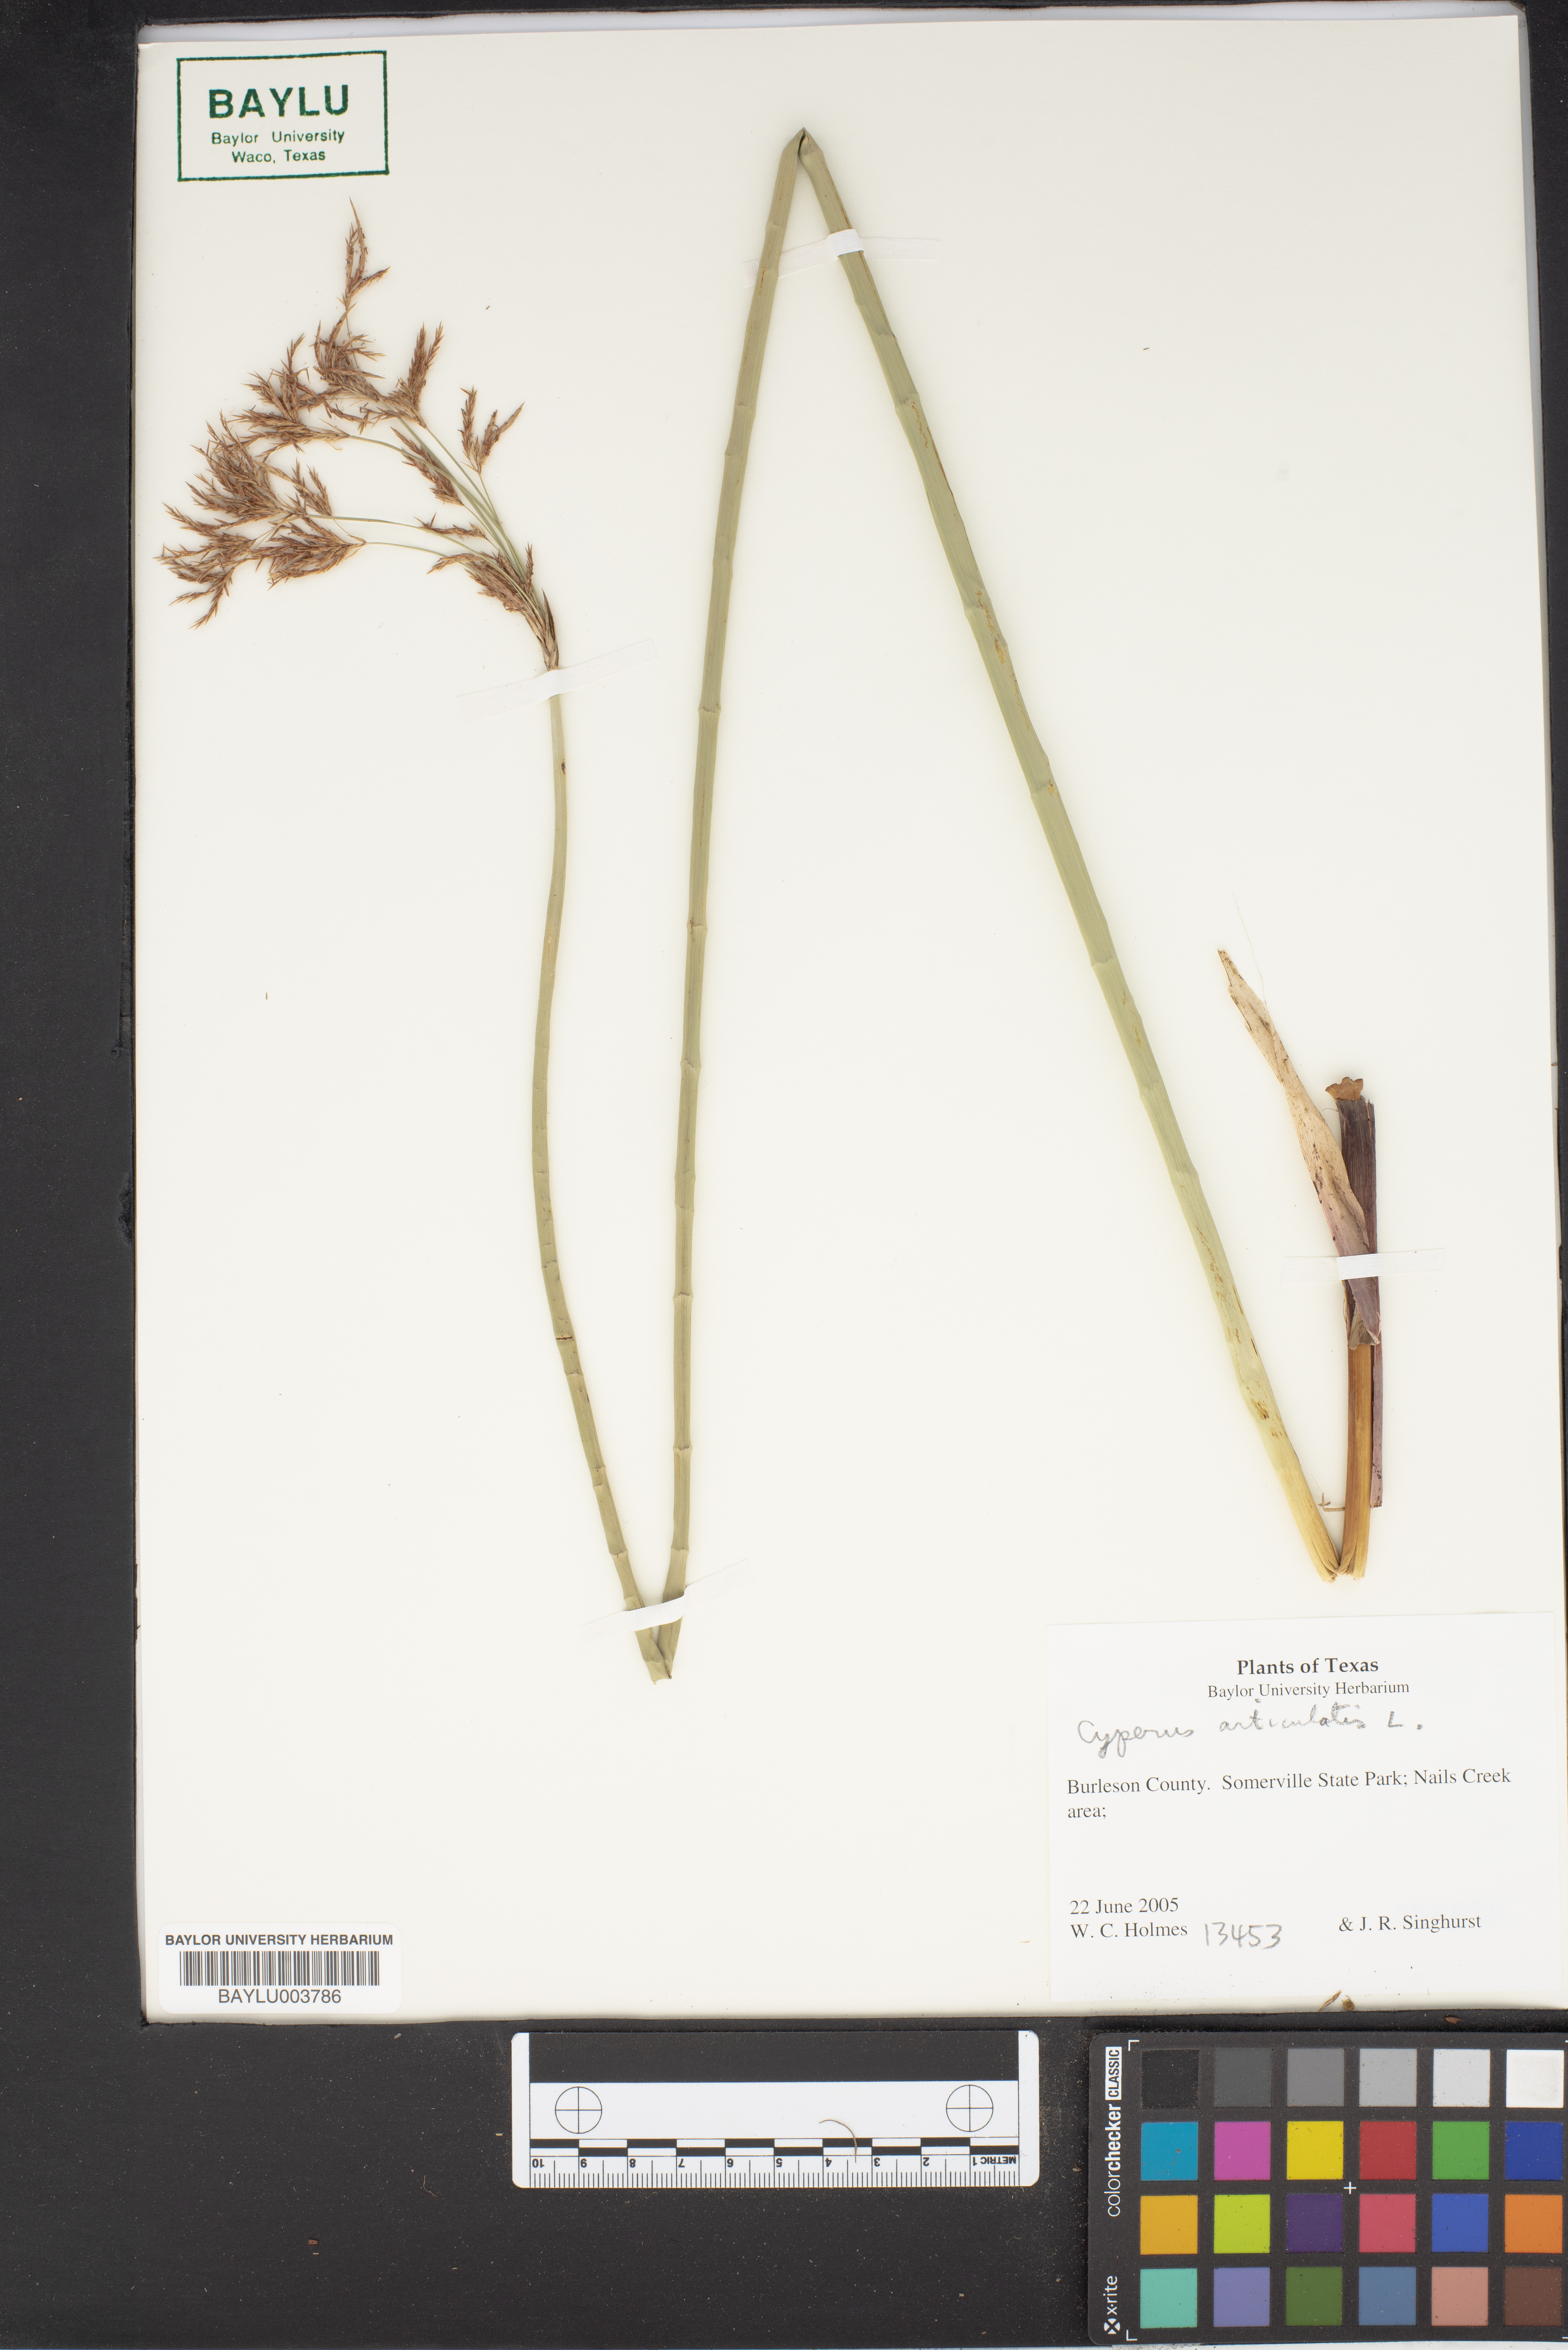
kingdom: Plantae
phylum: Tracheophyta
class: Liliopsida
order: Poales
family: Cyperaceae
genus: Cyperus
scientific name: Cyperus articulatus
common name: Jointed flatsedge
